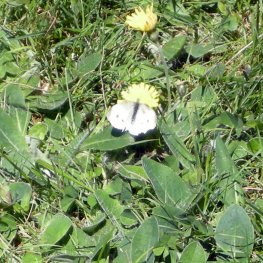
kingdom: Animalia
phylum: Arthropoda
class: Insecta
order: Lepidoptera
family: Pieridae
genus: Pieris
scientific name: Pieris rapae
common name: Cabbage White
